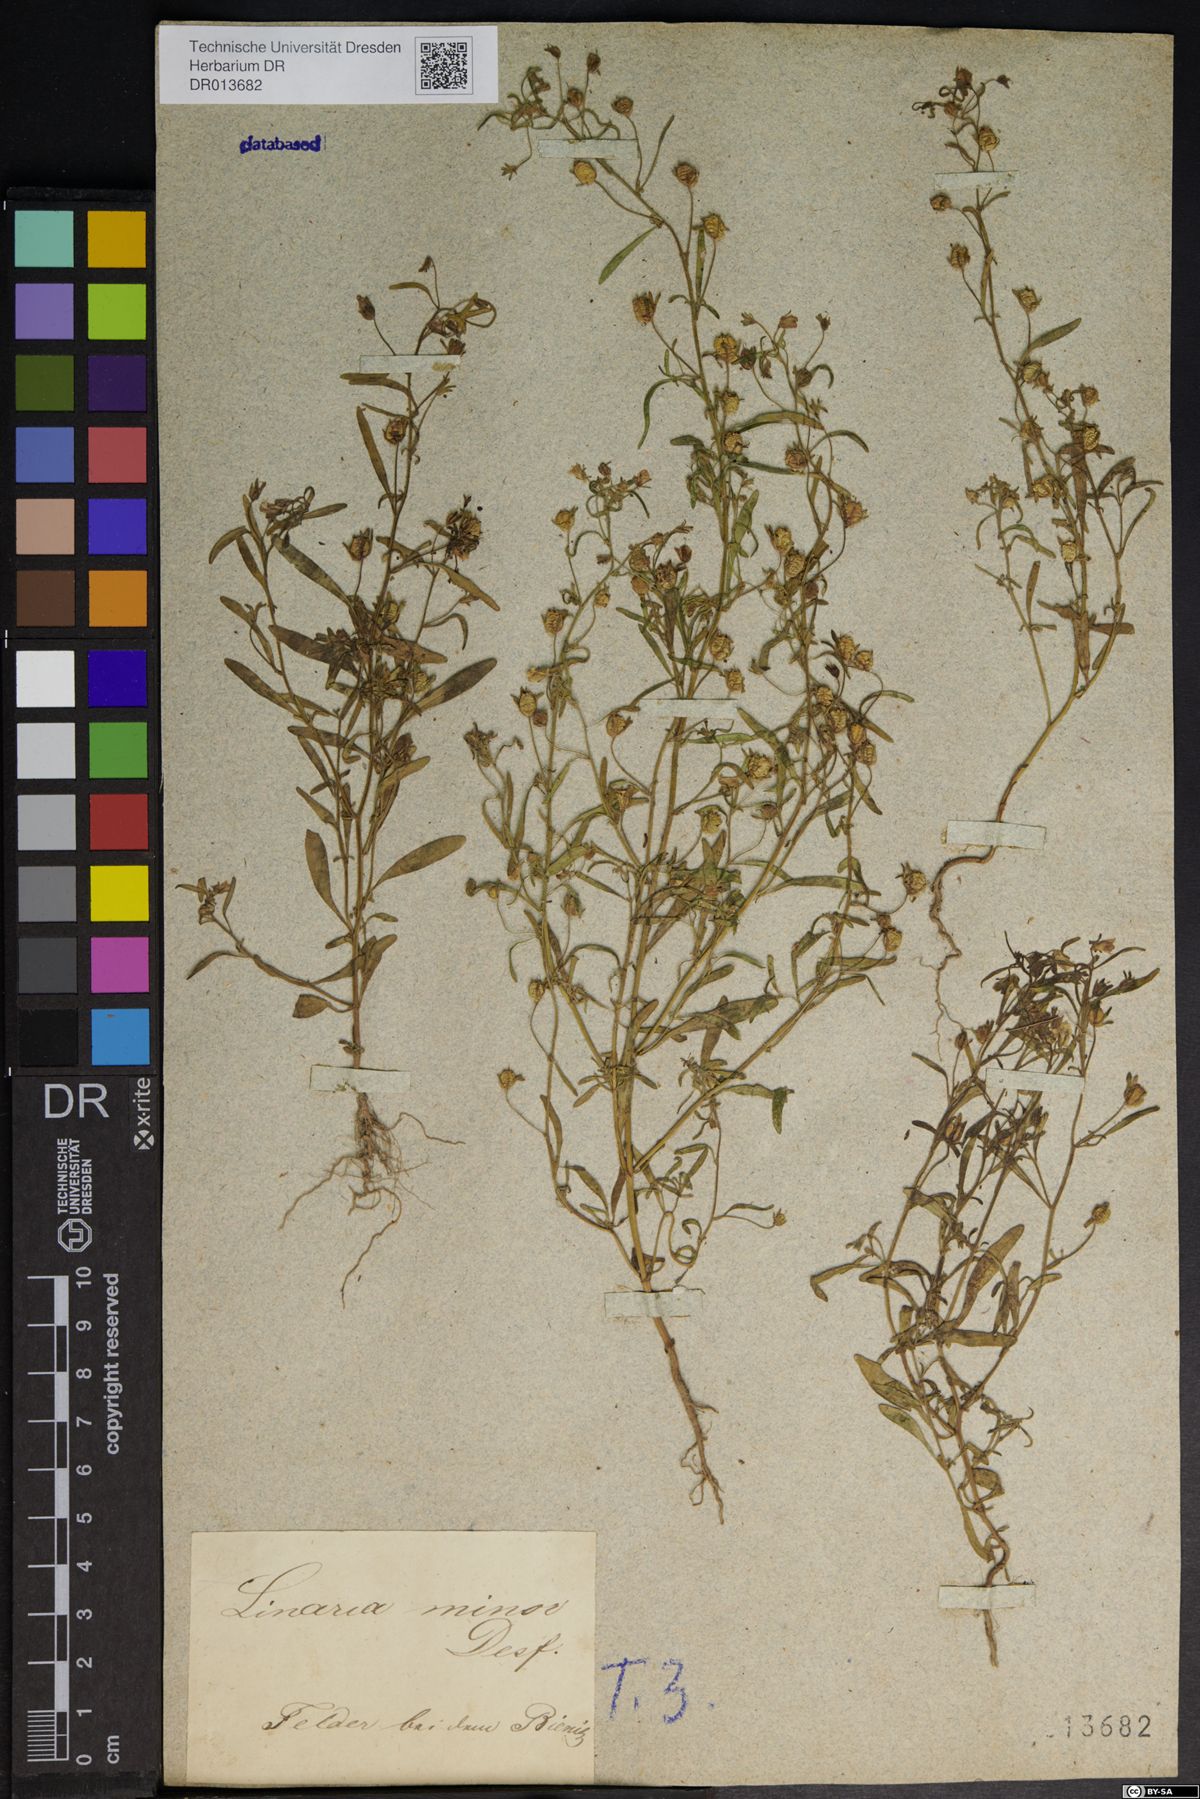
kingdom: Plantae
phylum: Tracheophyta
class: Magnoliopsida
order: Lamiales
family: Plantaginaceae
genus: Chaenorhinum
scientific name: Chaenorhinum minus
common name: Dwarf snapdragon
